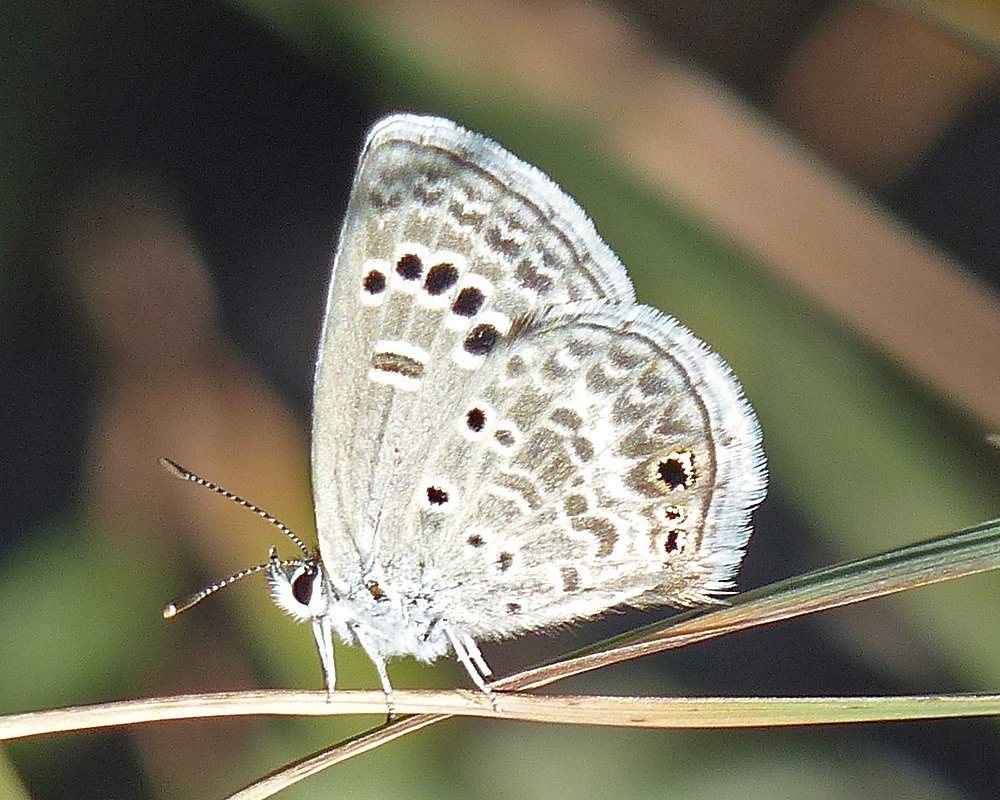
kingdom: Animalia
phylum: Arthropoda
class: Insecta
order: Lepidoptera
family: Lycaenidae
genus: Echinargus
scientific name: Echinargus isola
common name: Reakirt's Blue
